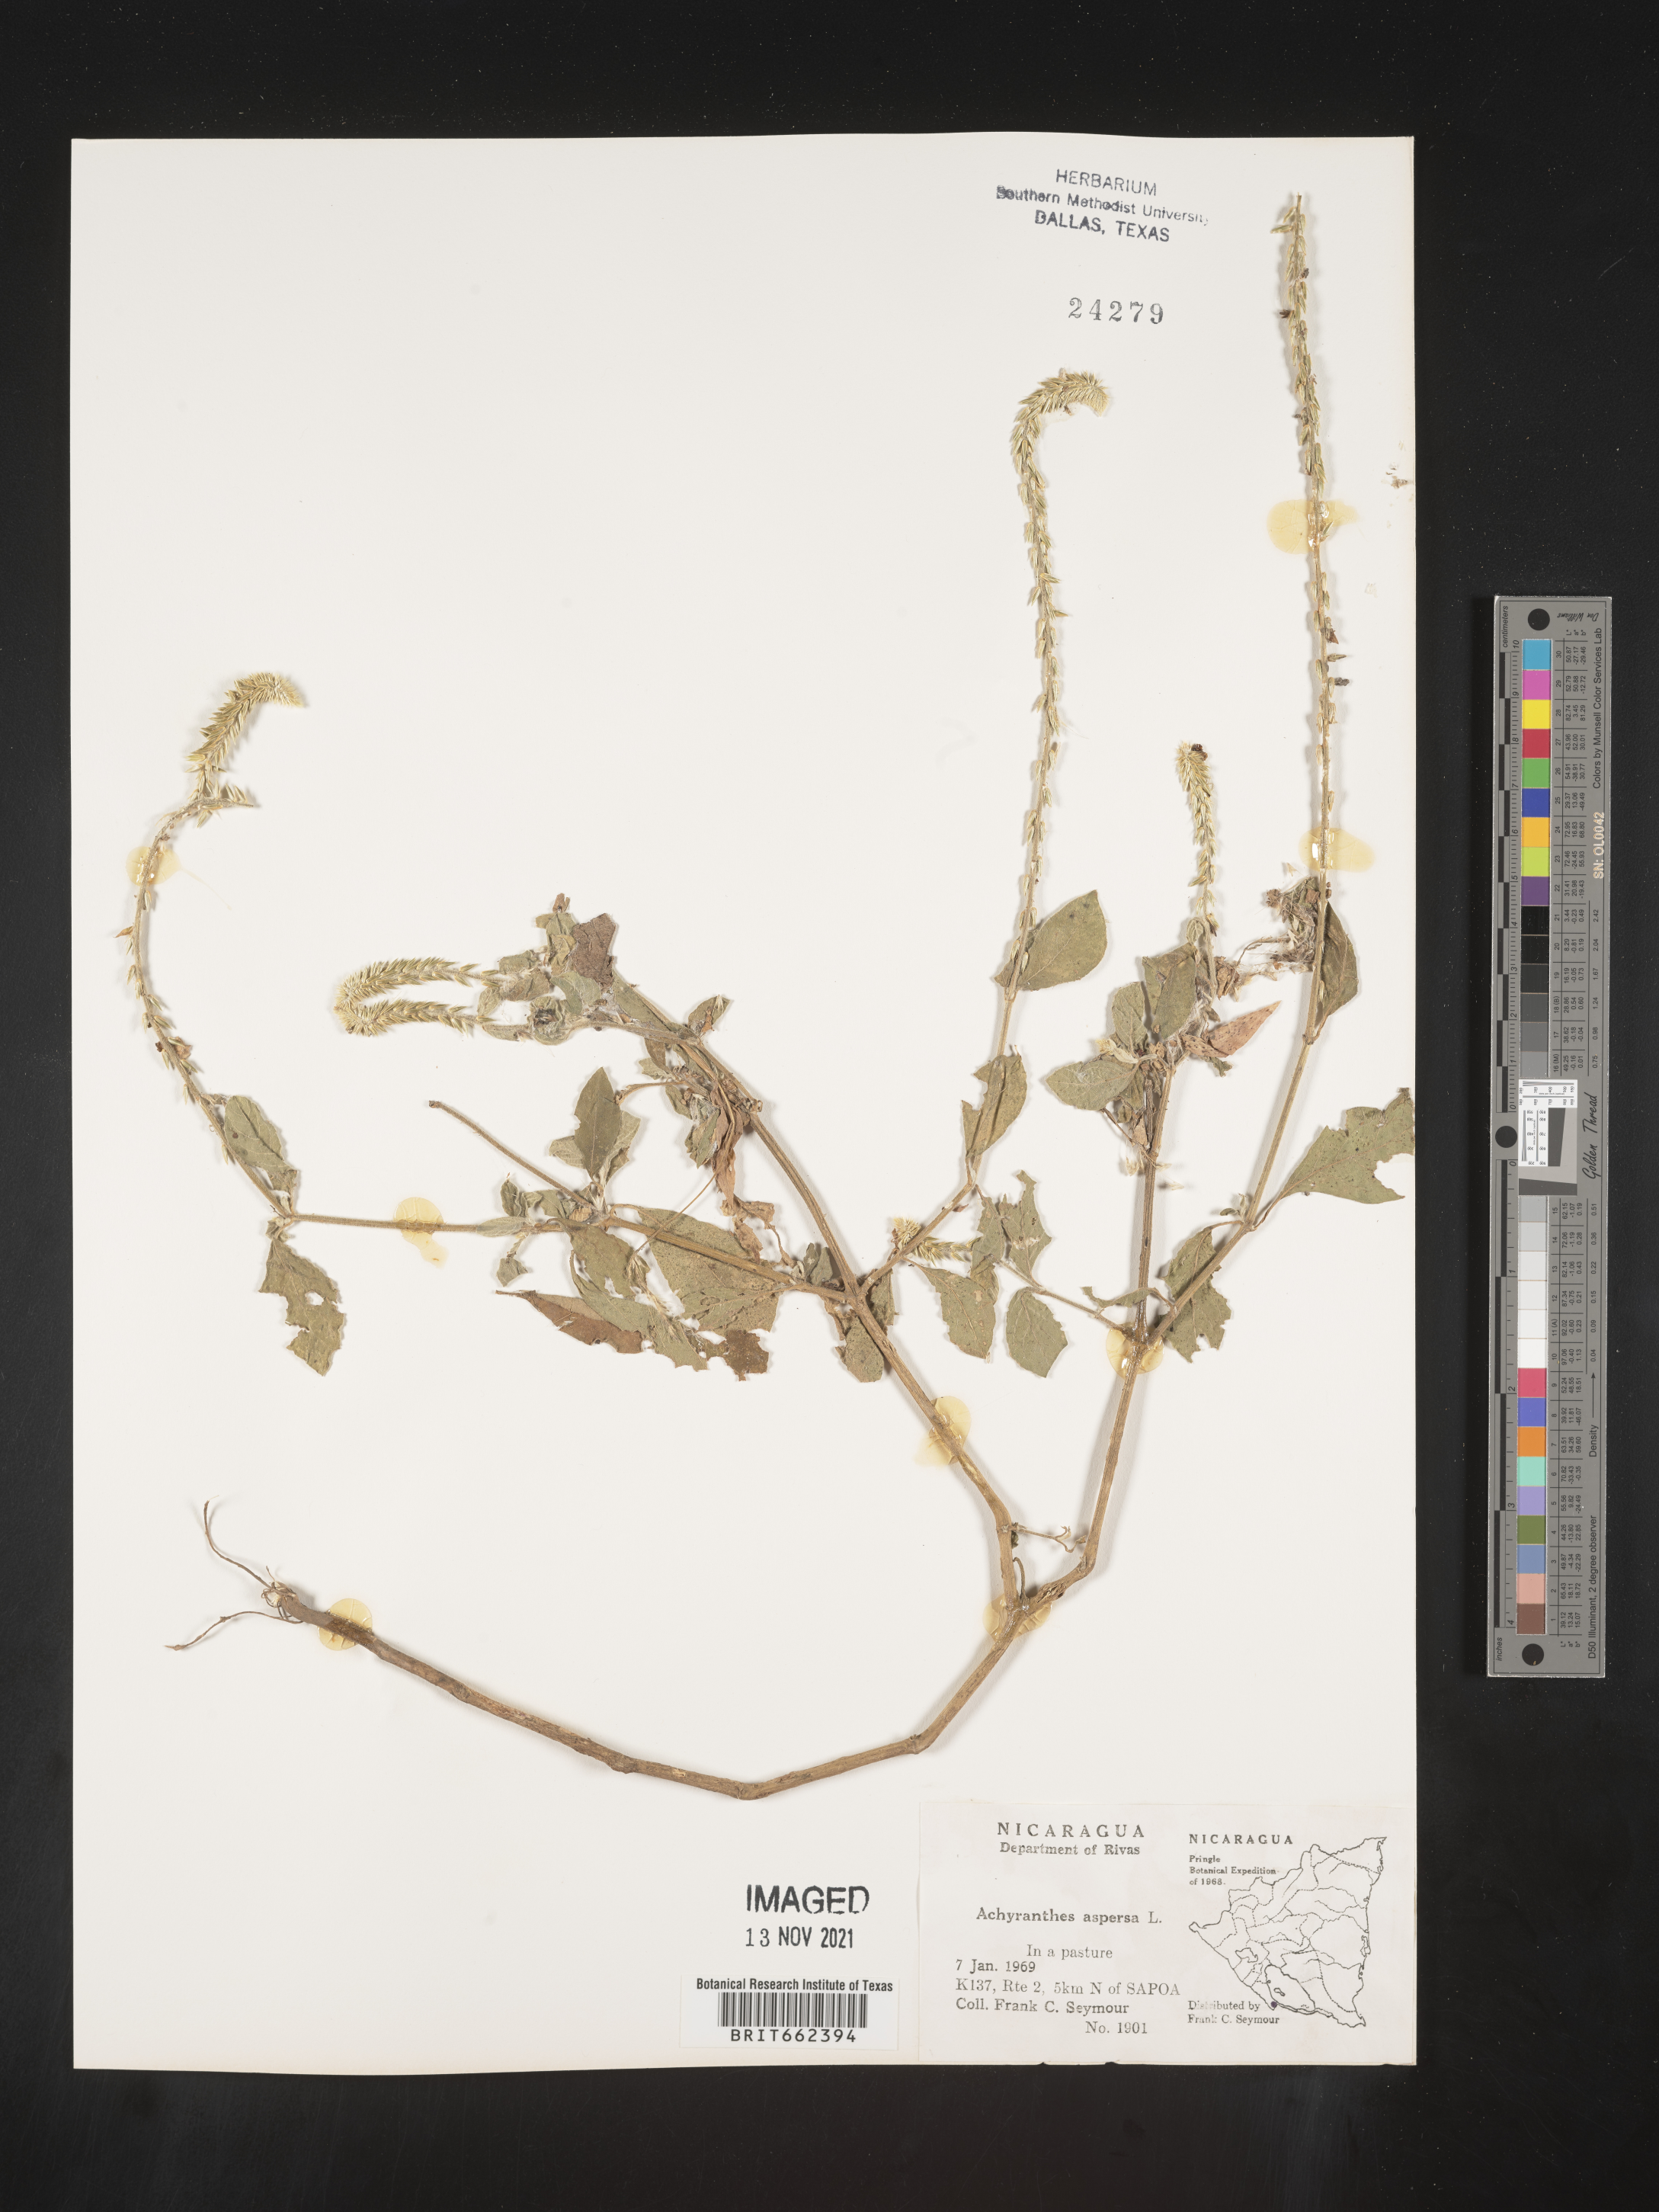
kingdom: Plantae
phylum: Tracheophyta
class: Magnoliopsida
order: Caryophyllales
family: Amaranthaceae
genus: Achyranthes
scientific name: Achyranthes
